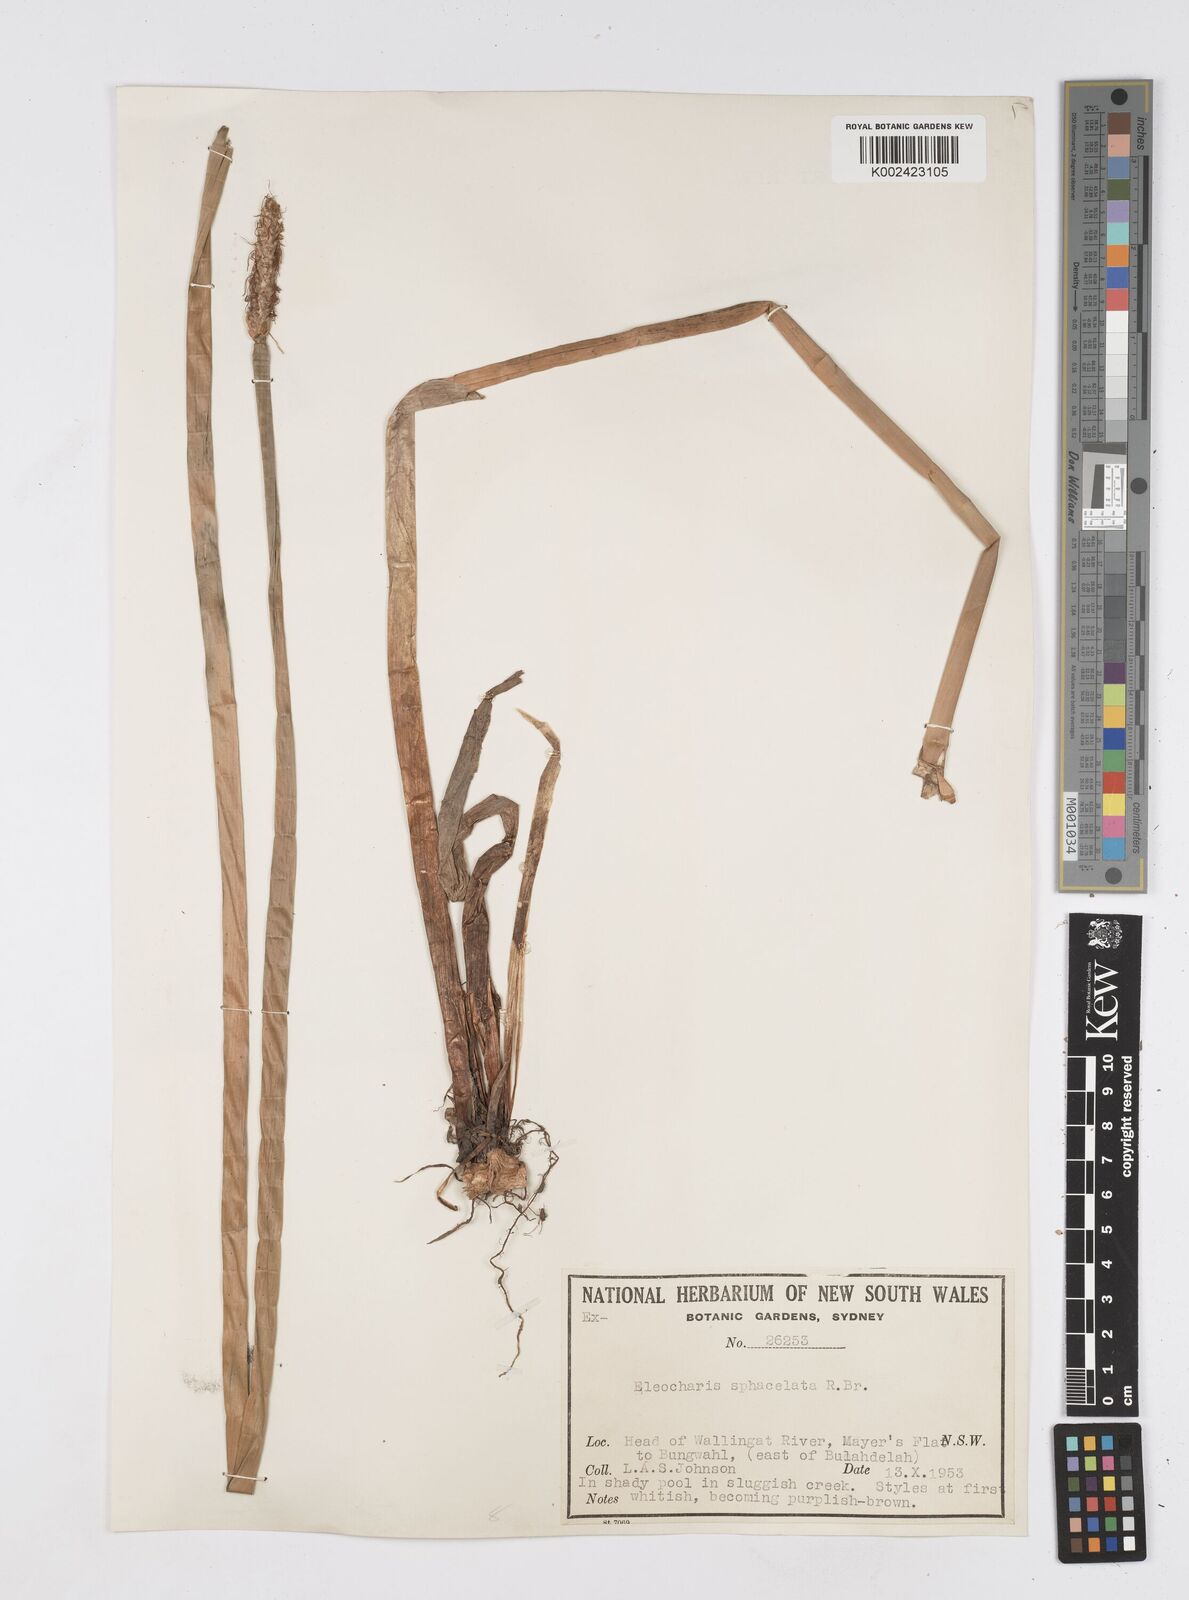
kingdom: Plantae
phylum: Tracheophyta
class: Liliopsida
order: Poales
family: Cyperaceae
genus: Eleocharis
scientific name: Eleocharis sphacelata
